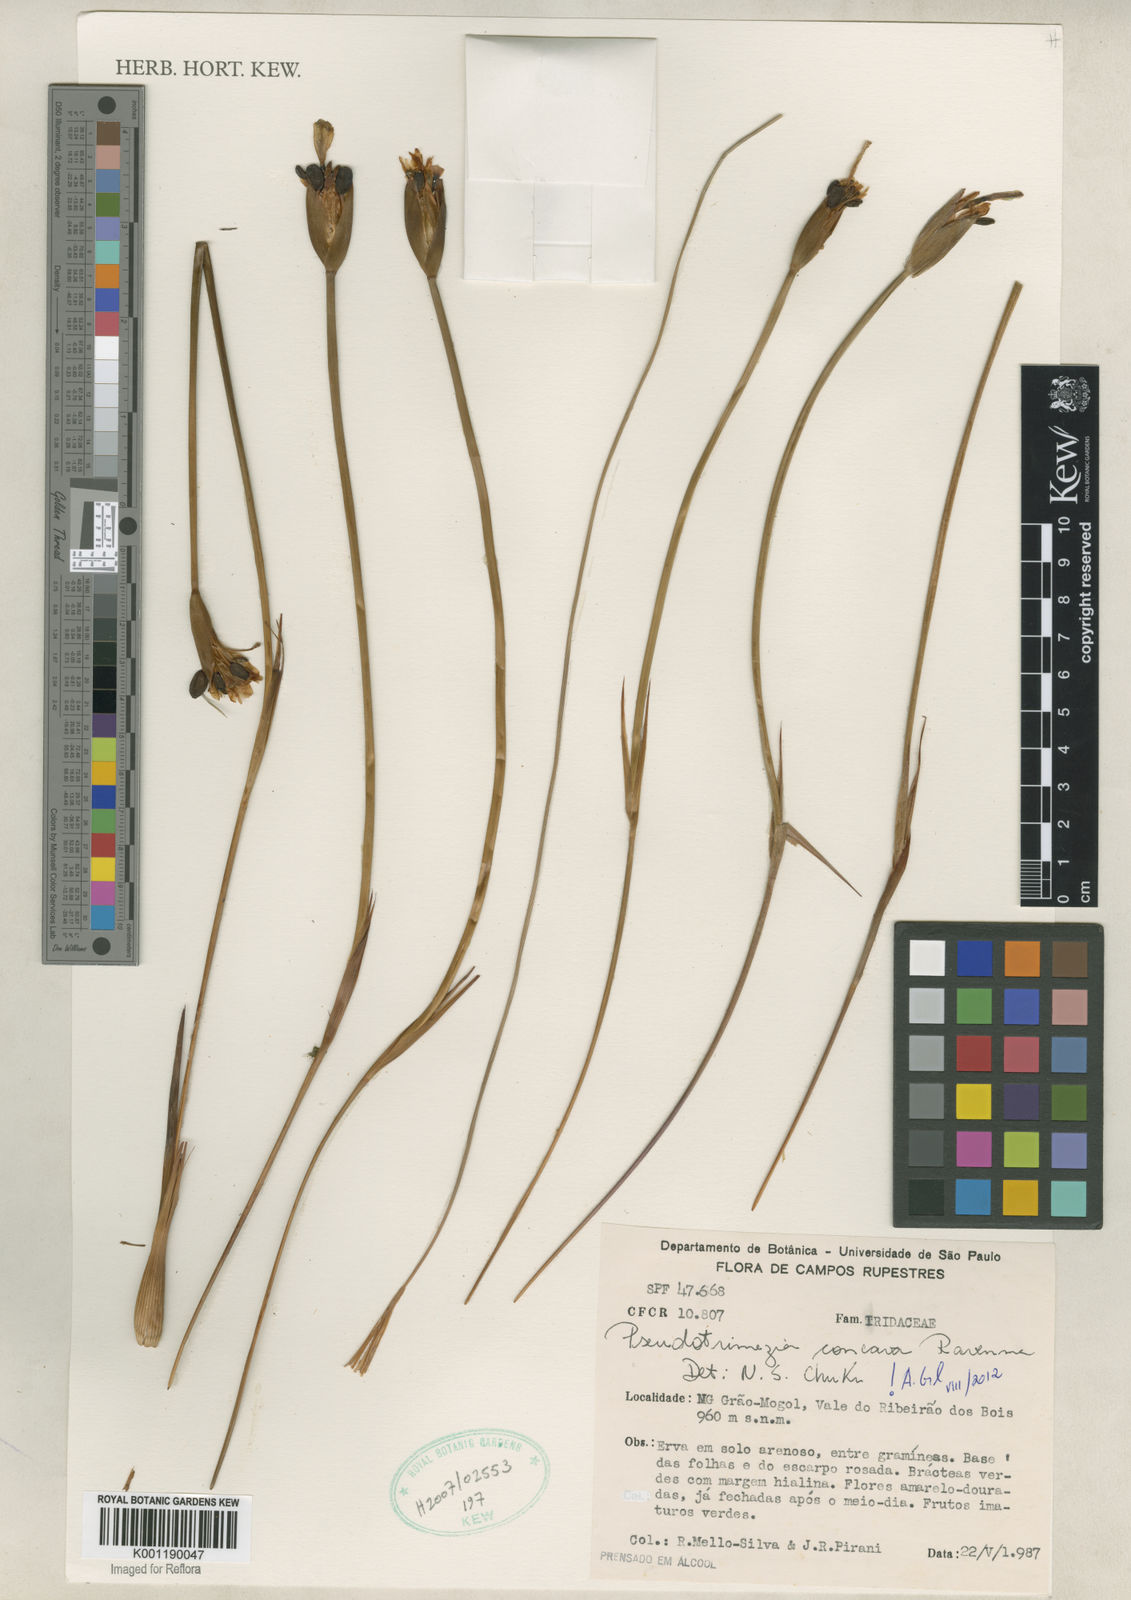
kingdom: Plantae
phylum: Tracheophyta
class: Liliopsida
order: Asparagales
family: Iridaceae
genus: Trimezia
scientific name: Trimezia concava
